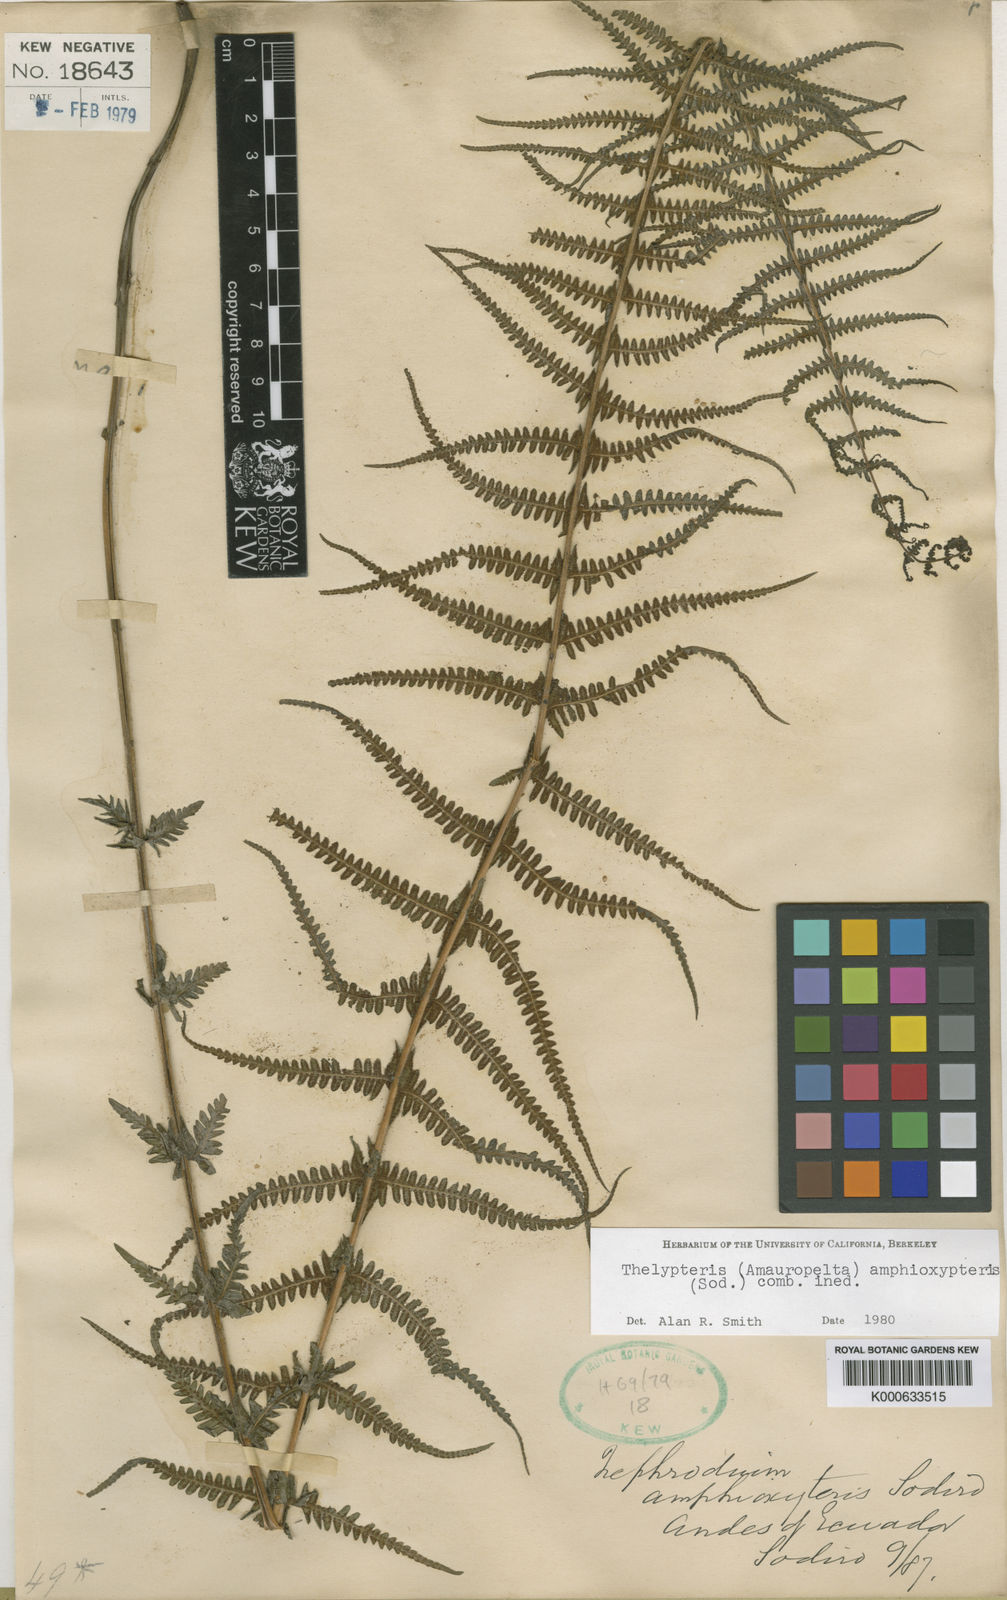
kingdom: Plantae
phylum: Tracheophyta
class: Polypodiopsida
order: Polypodiales
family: Thelypteridaceae
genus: Amauropelta
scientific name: Amauropelta amphioxypteris
